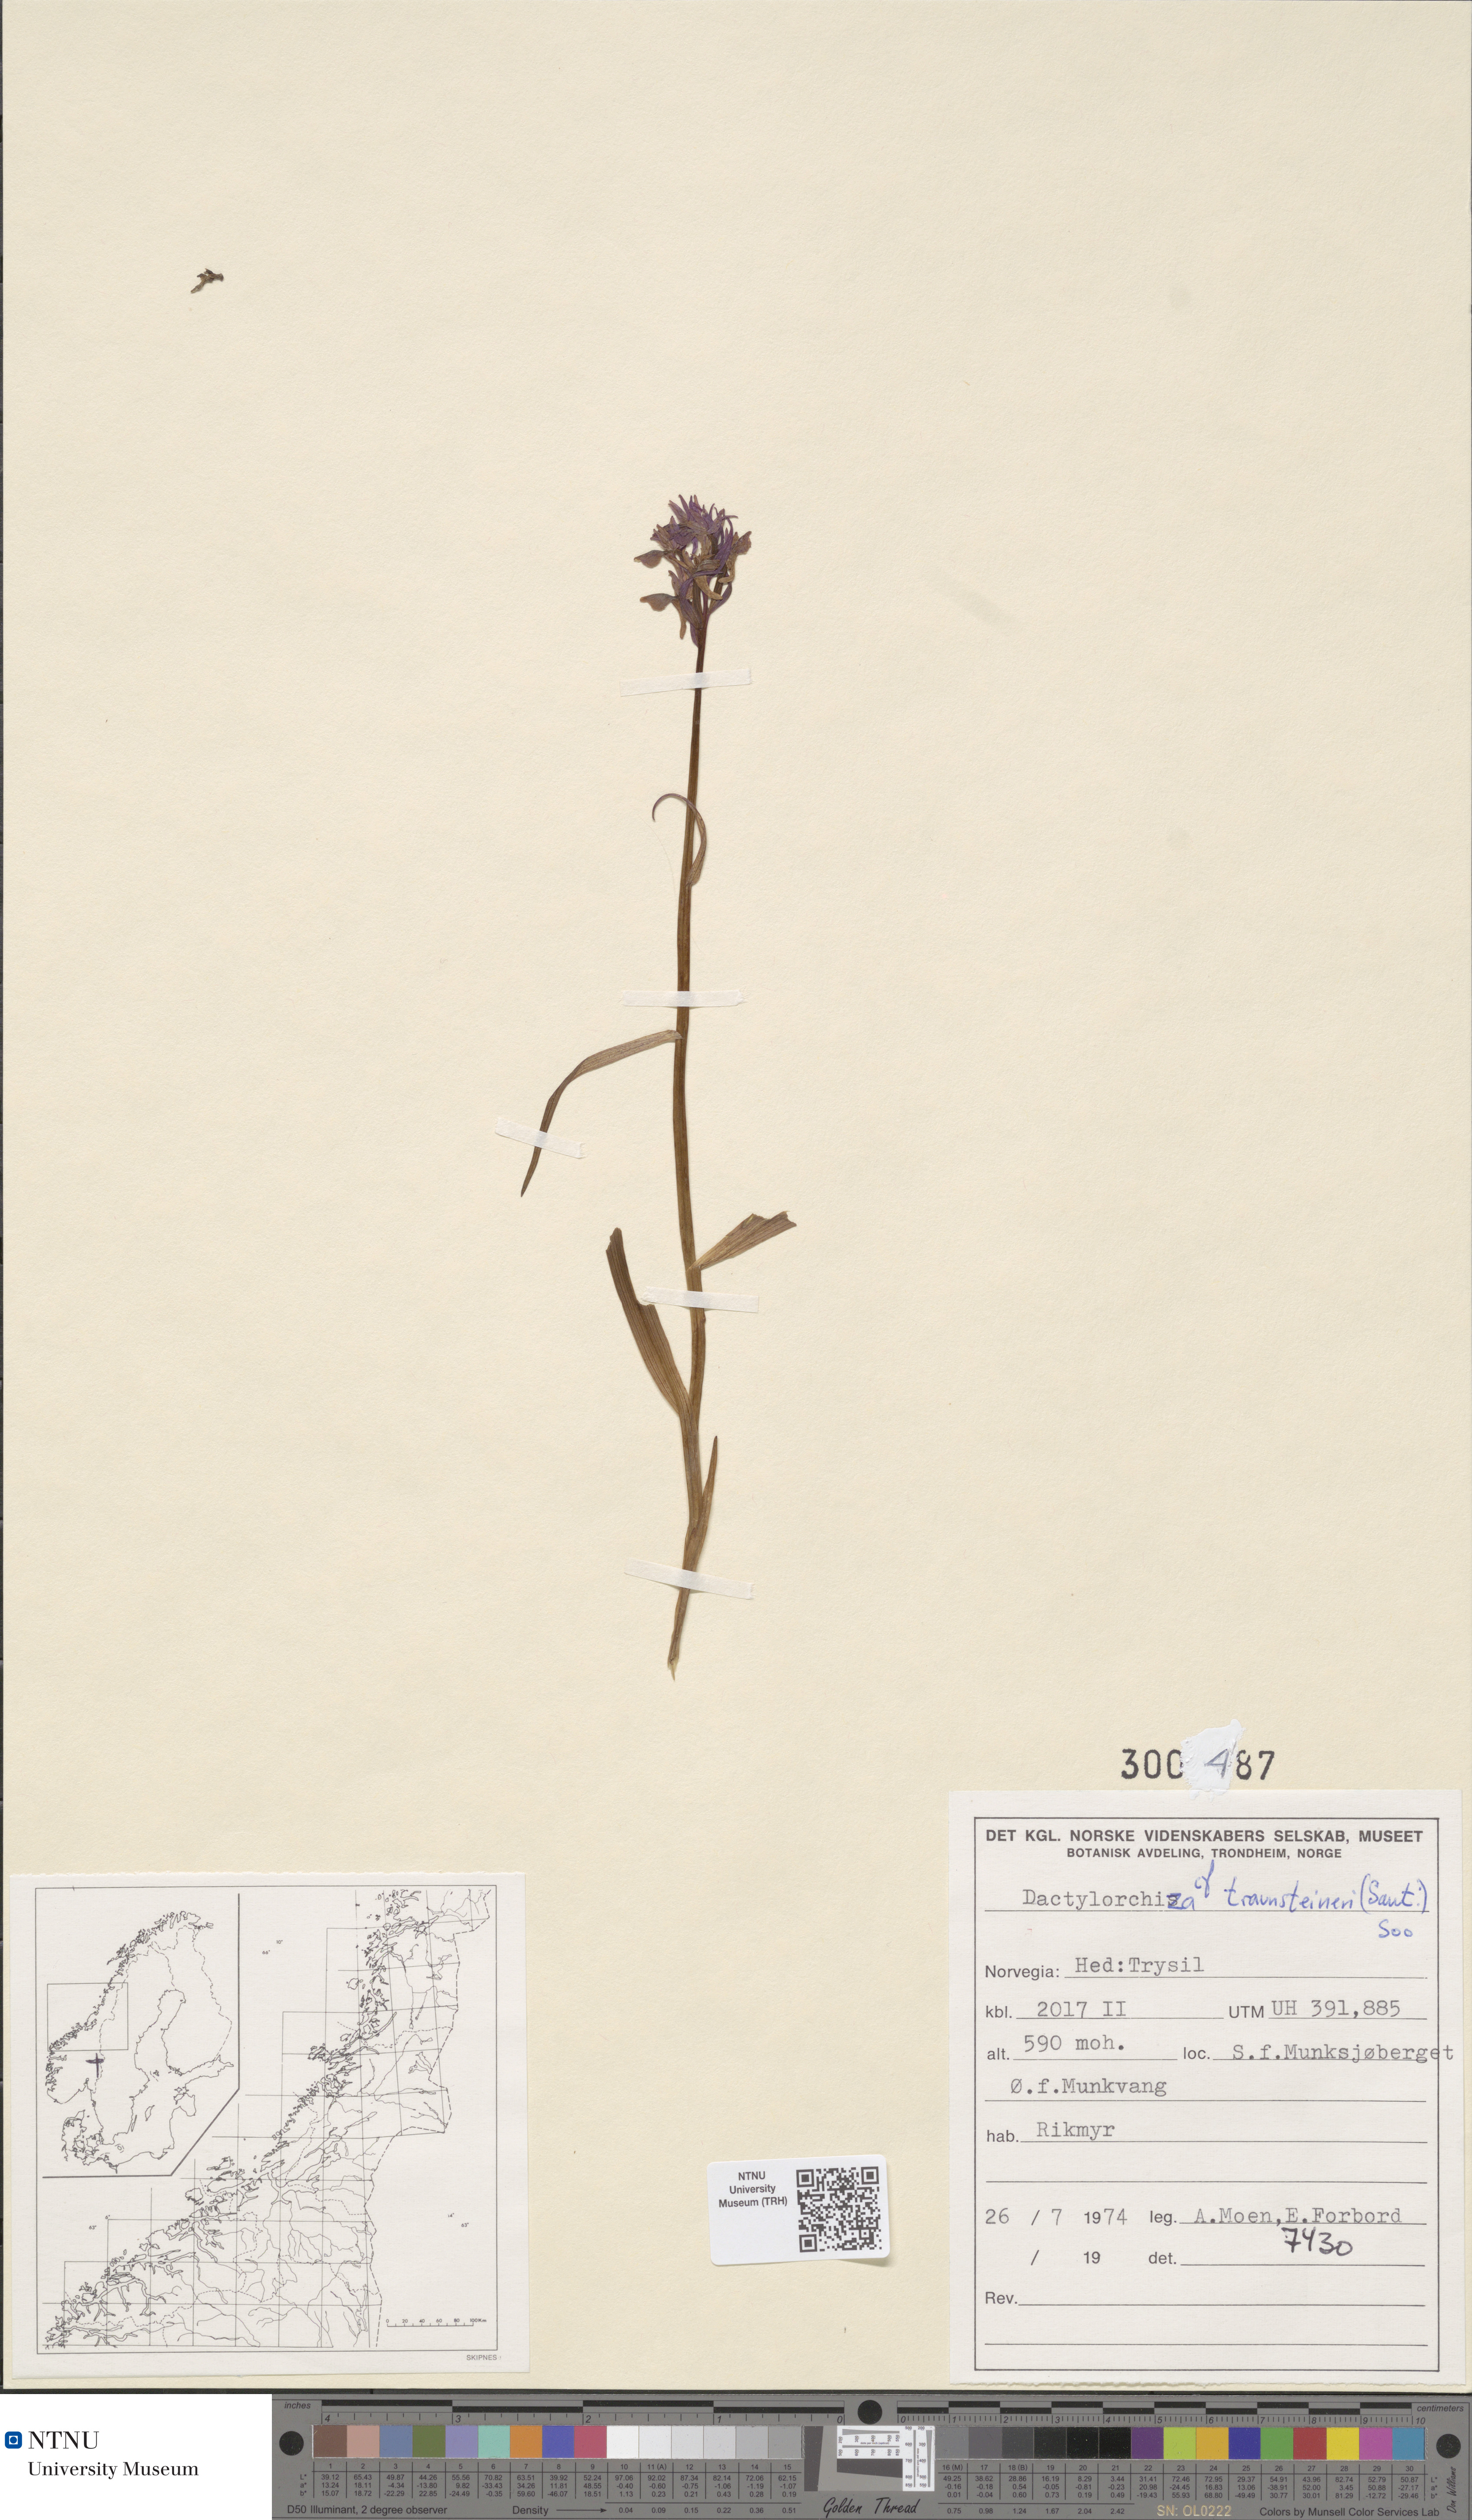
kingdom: Plantae
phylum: Tracheophyta
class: Liliopsida
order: Asparagales
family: Orchidaceae
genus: Dactylorhiza
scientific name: Dactylorhiza majalis
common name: Marsh orchid
